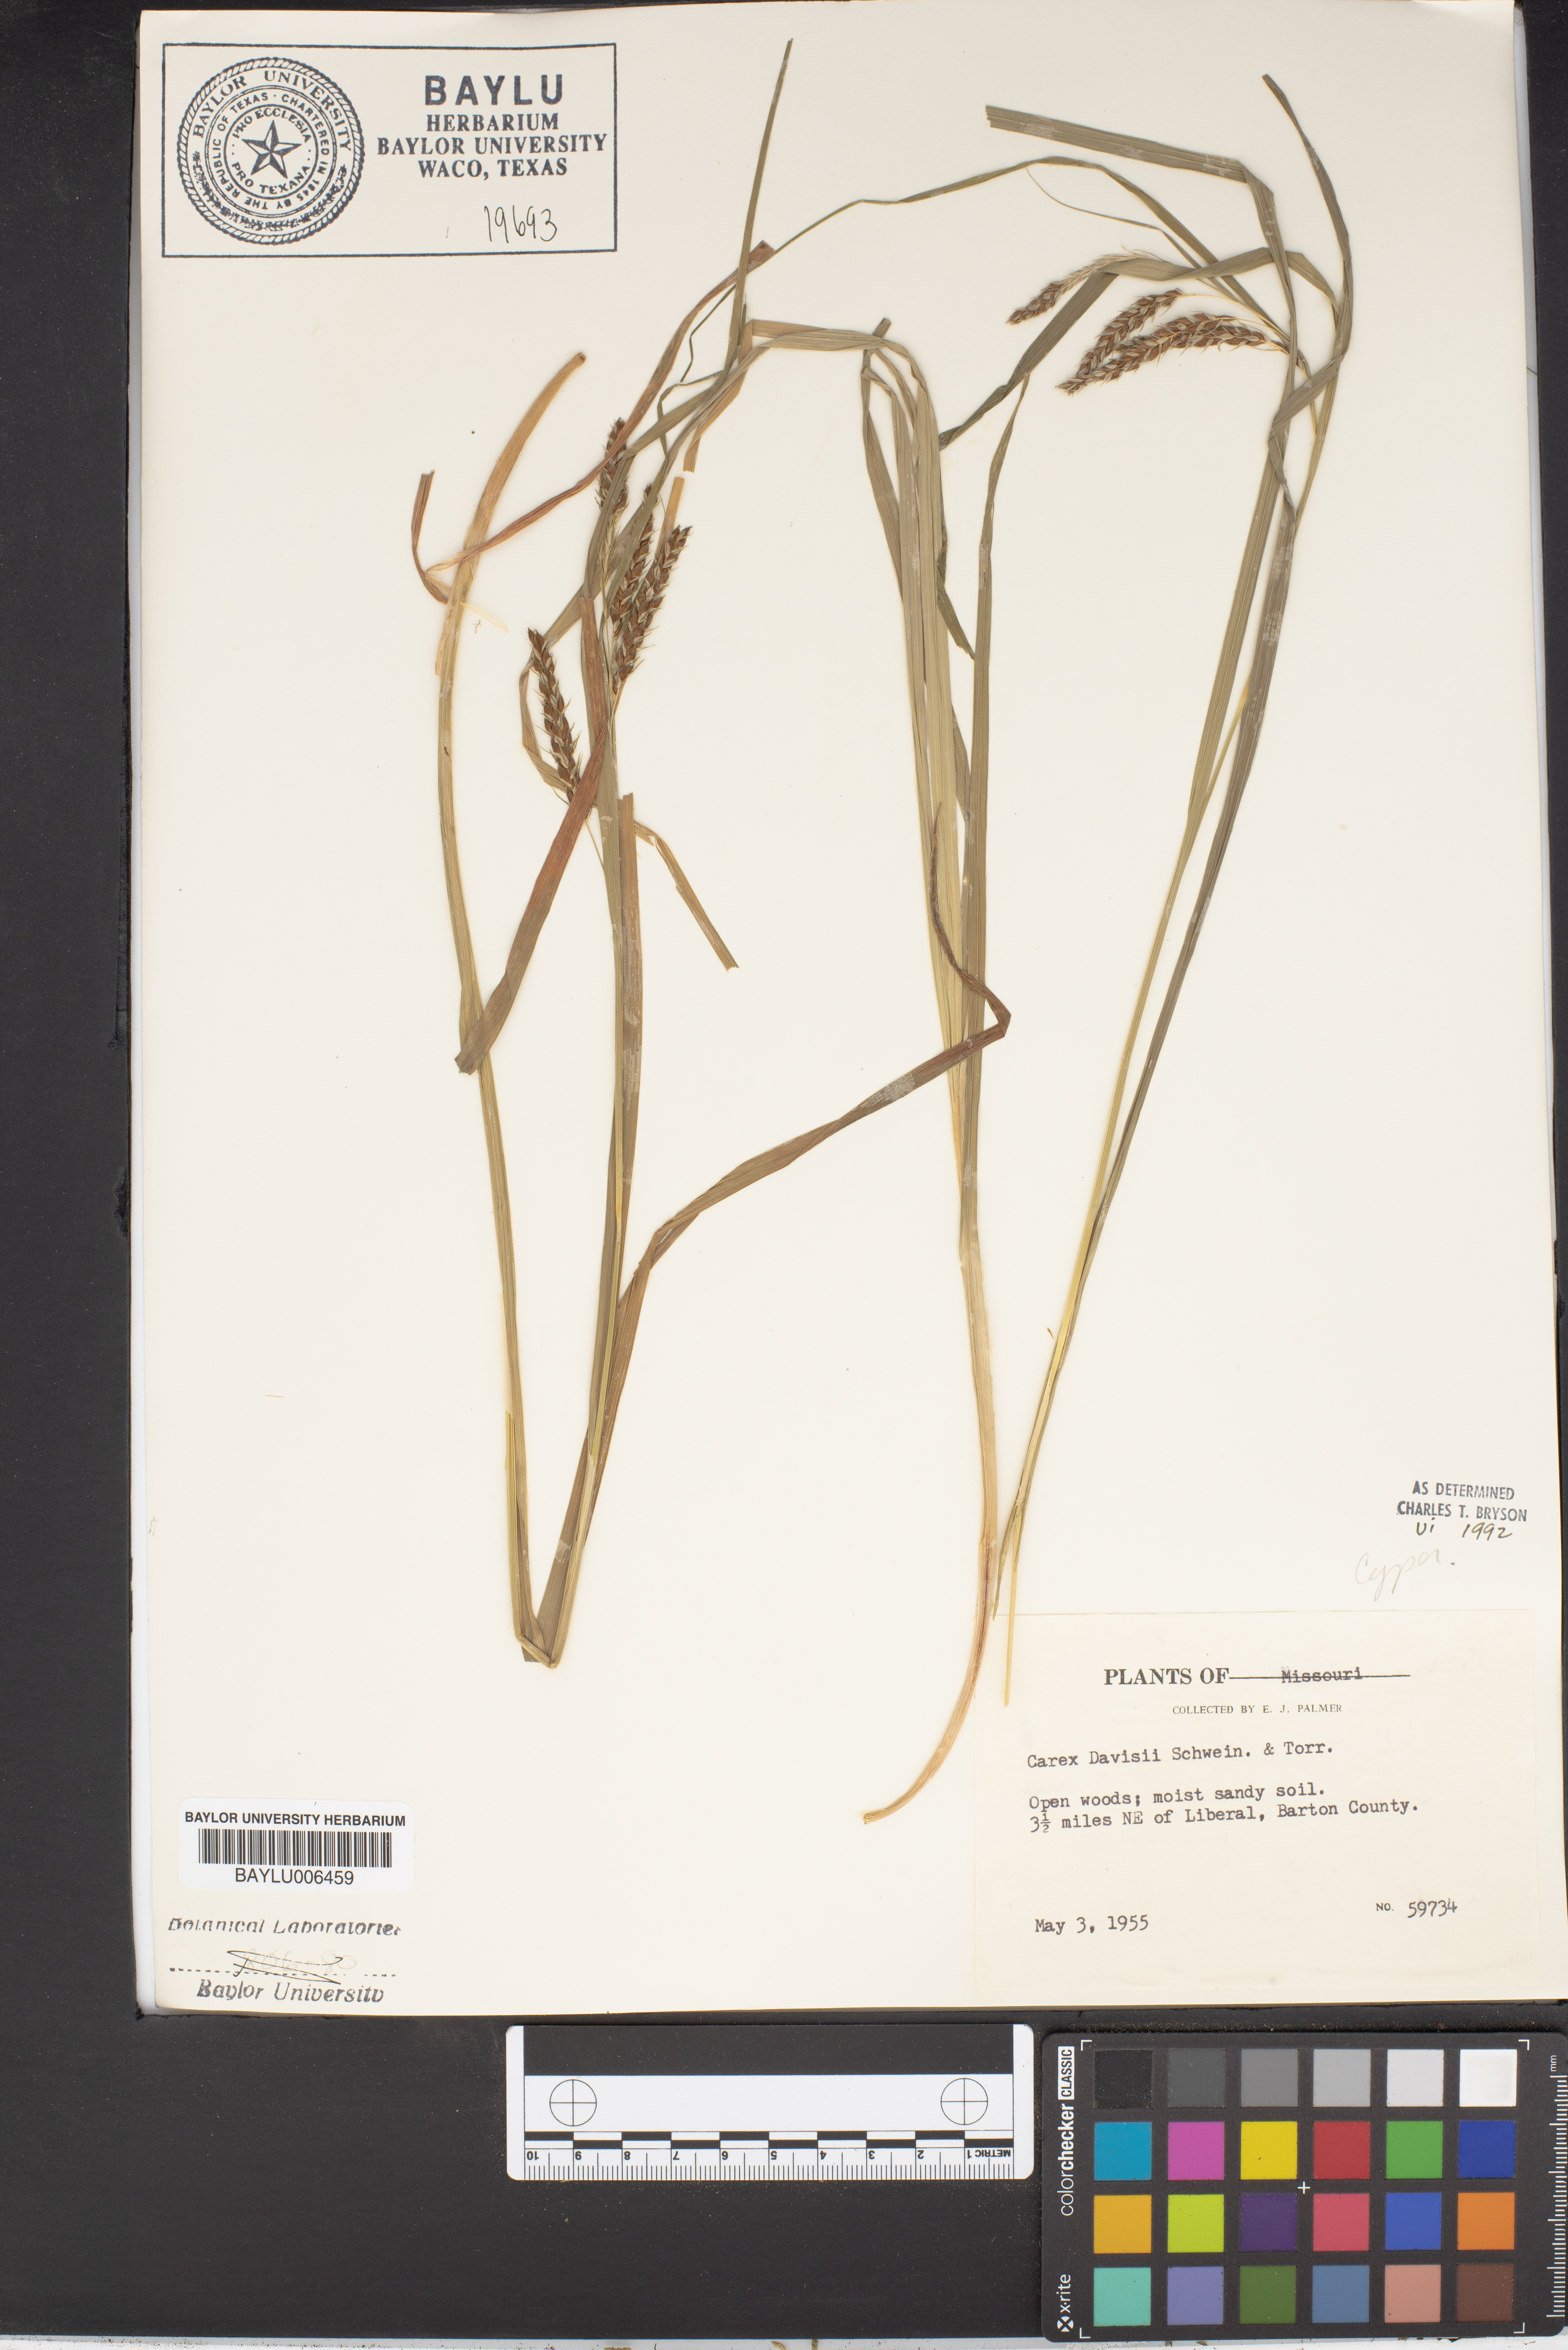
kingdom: Plantae
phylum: Tracheophyta
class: Liliopsida
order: Poales
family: Cyperaceae
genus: Carex
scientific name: Carex davisii
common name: Davis' sedge
